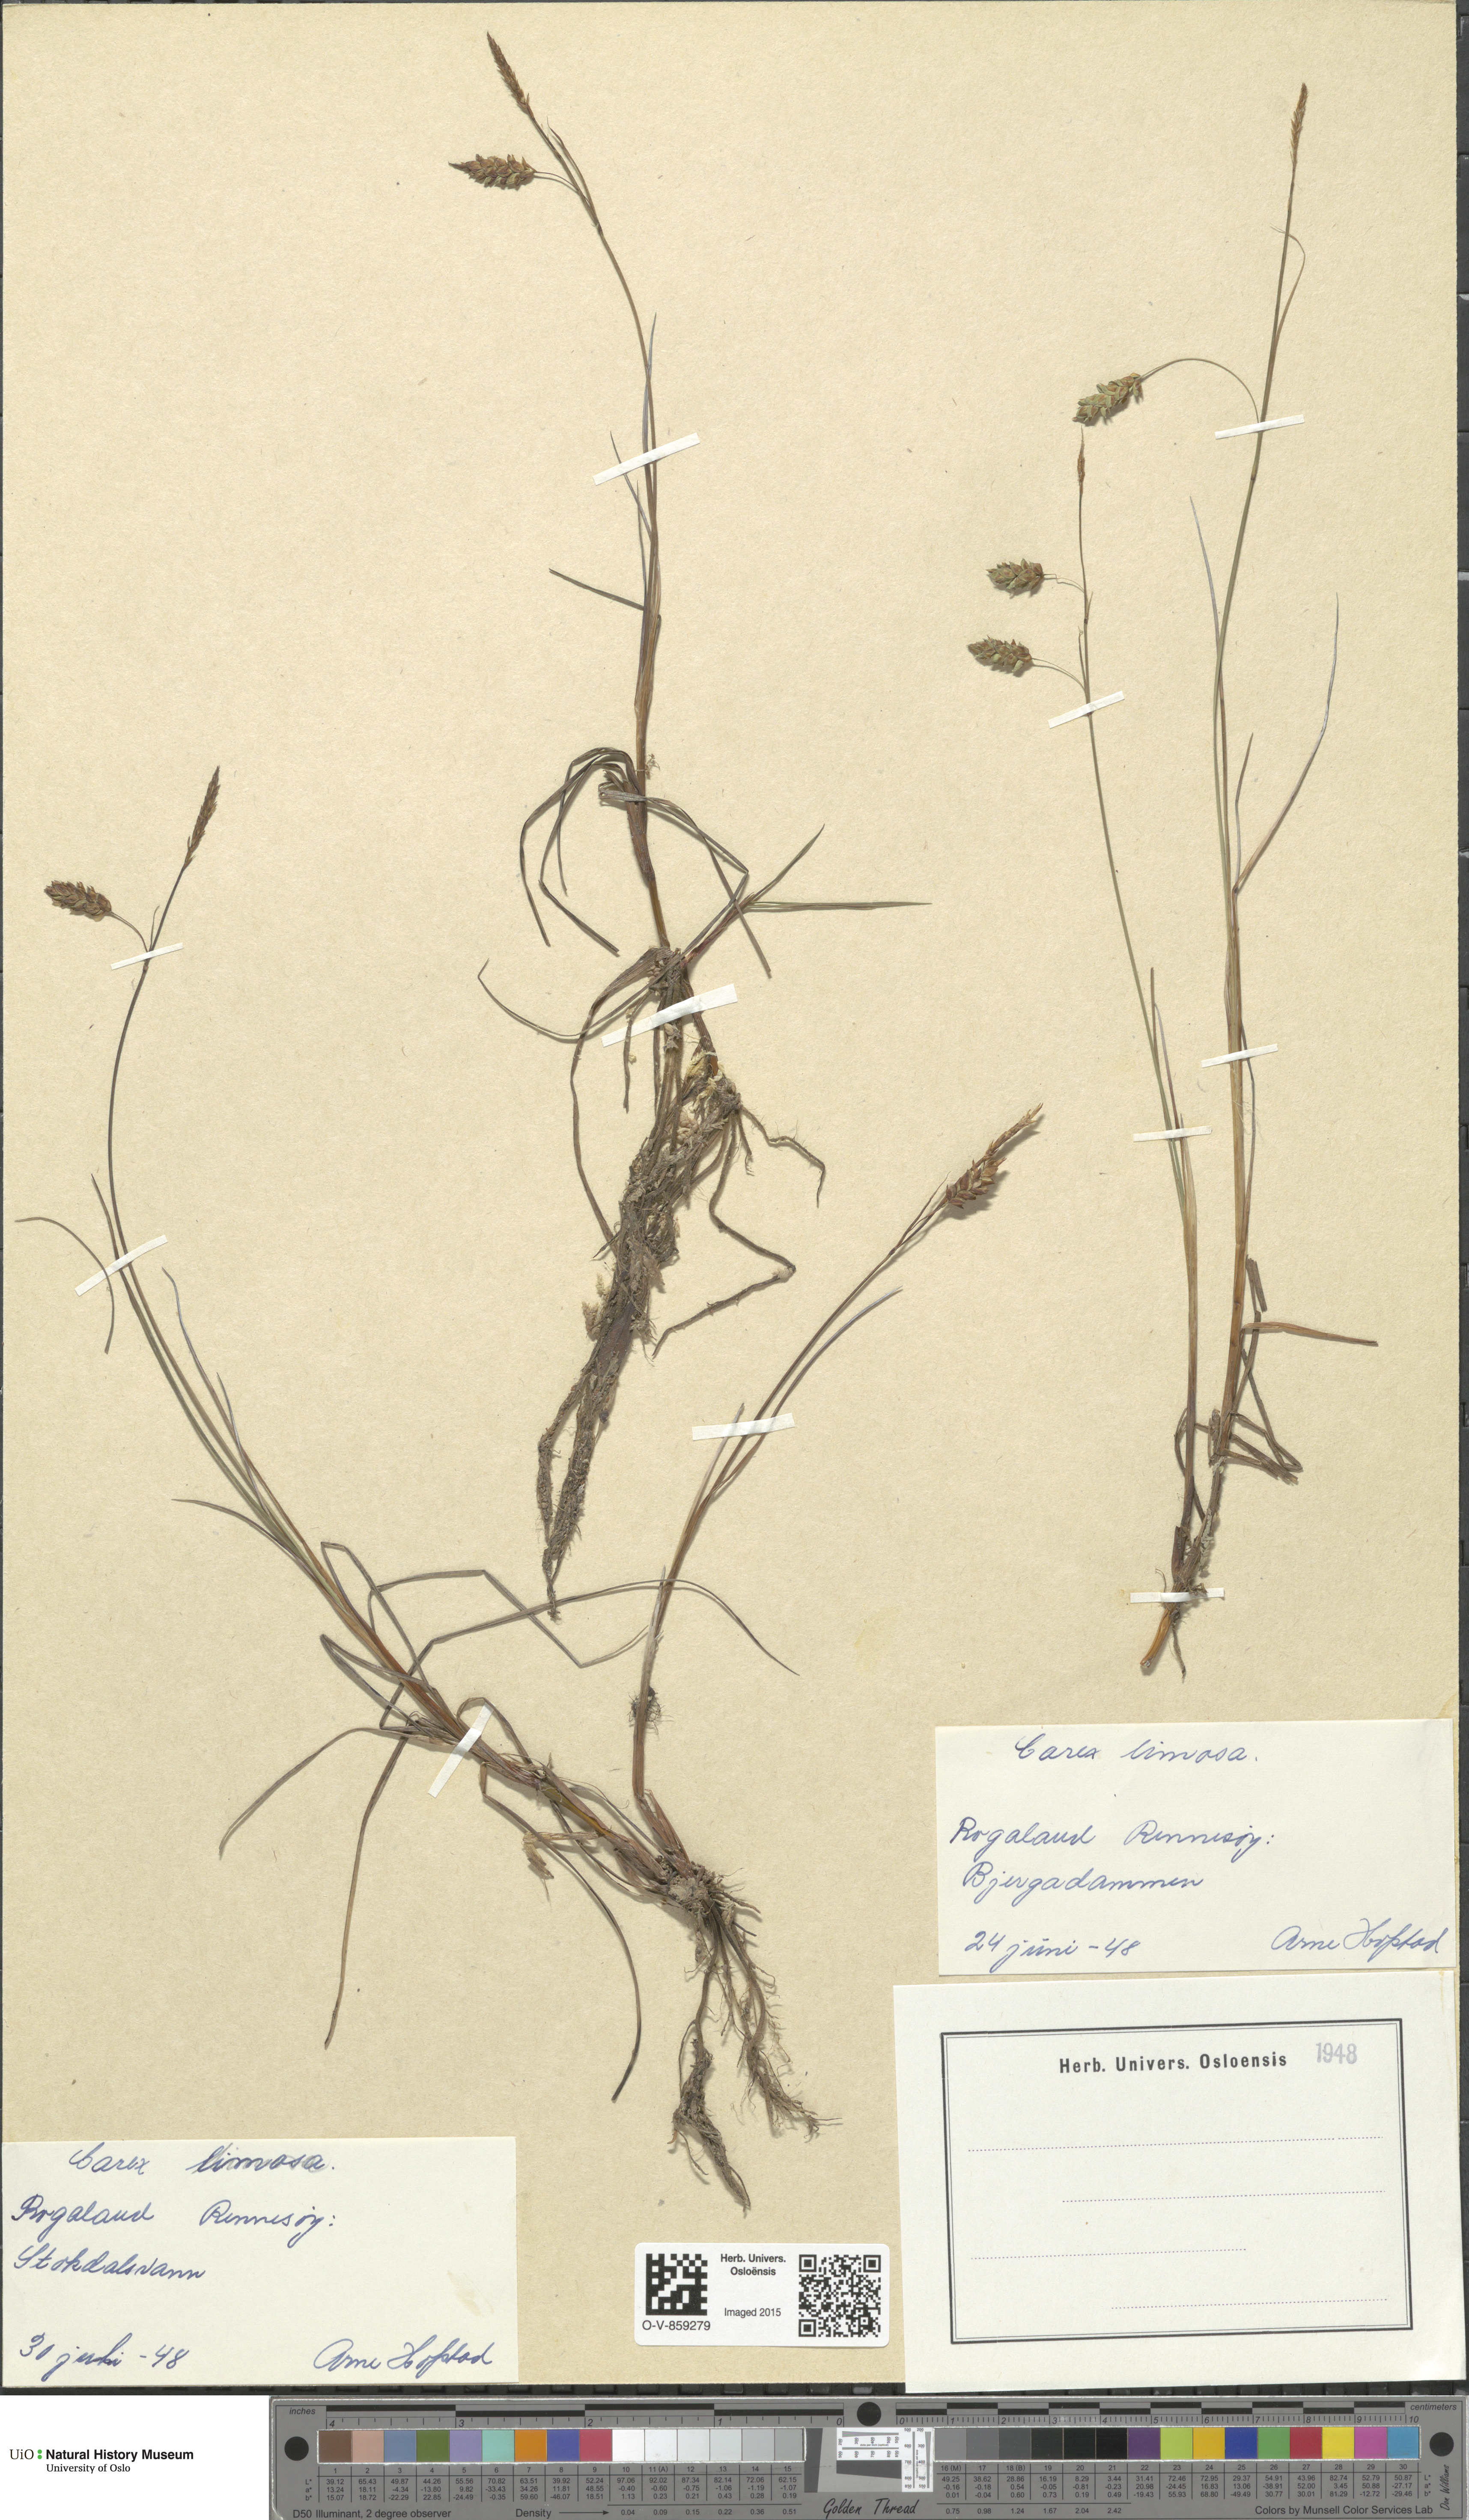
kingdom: Plantae
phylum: Tracheophyta
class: Liliopsida
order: Poales
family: Cyperaceae
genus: Carex
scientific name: Carex limosa
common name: Bog sedge
